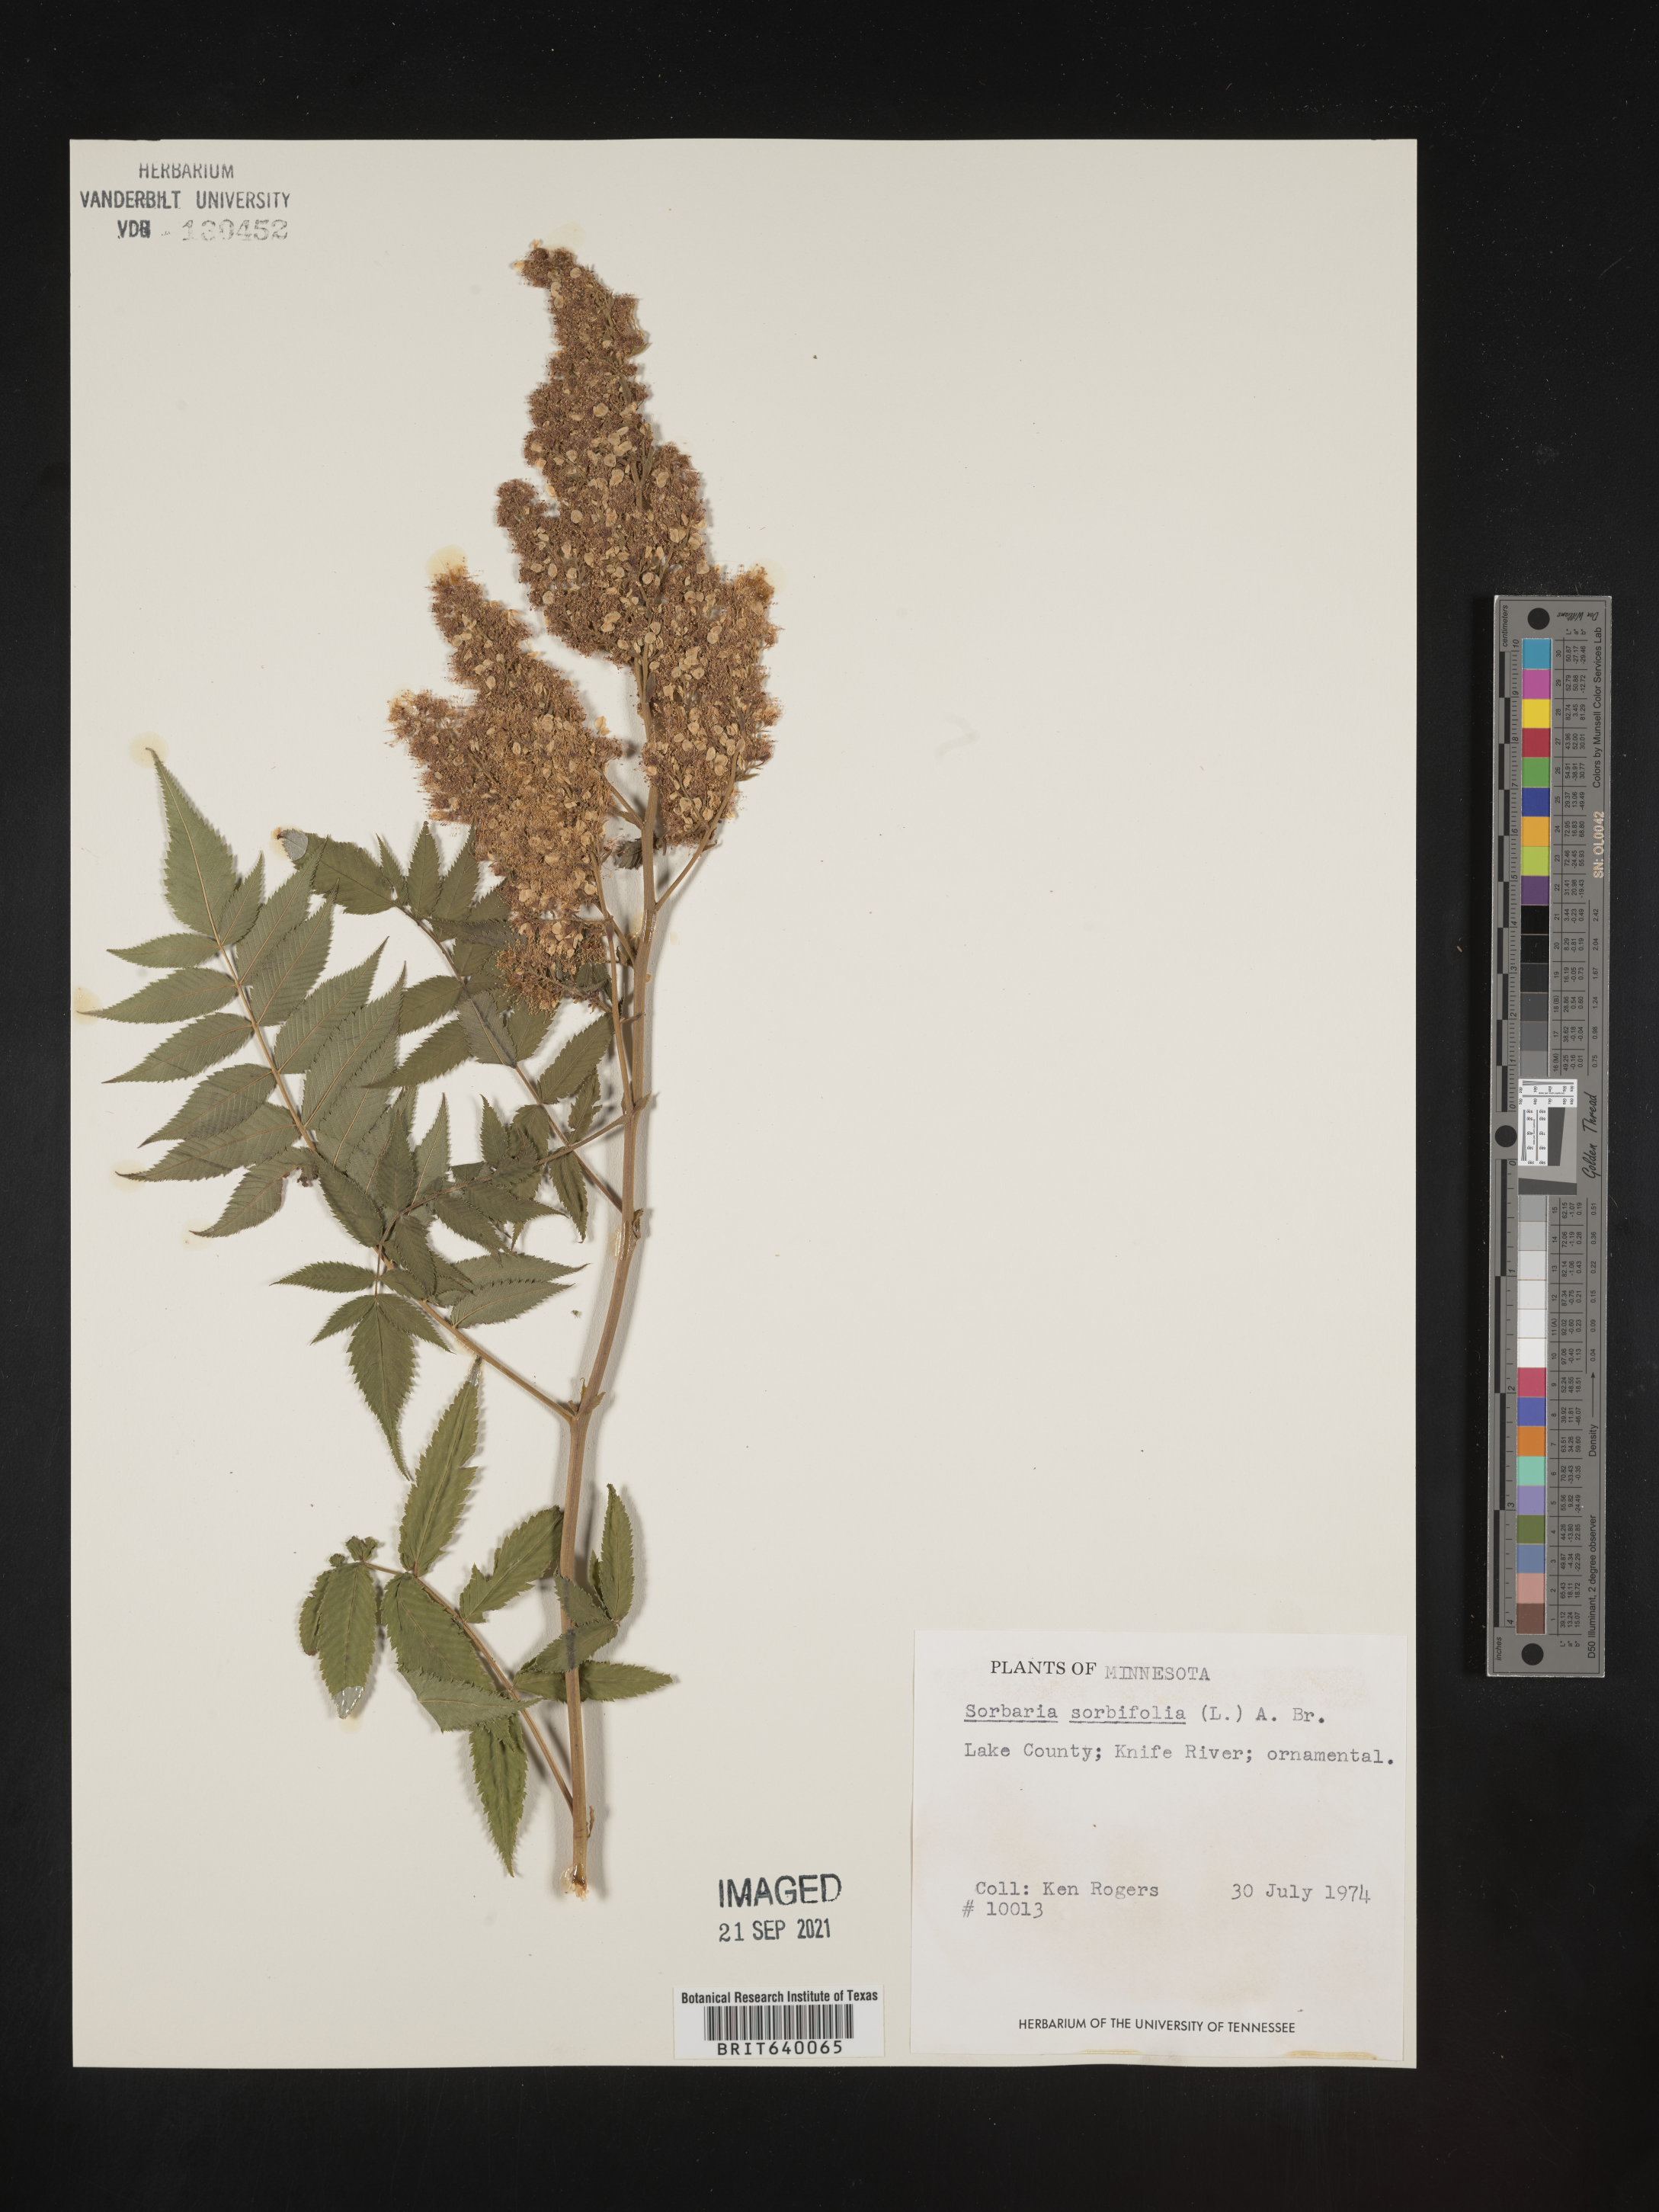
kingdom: Plantae
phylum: Tracheophyta
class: Magnoliopsida
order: Rosales
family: Rosaceae
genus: Sorbaria
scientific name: Sorbaria
